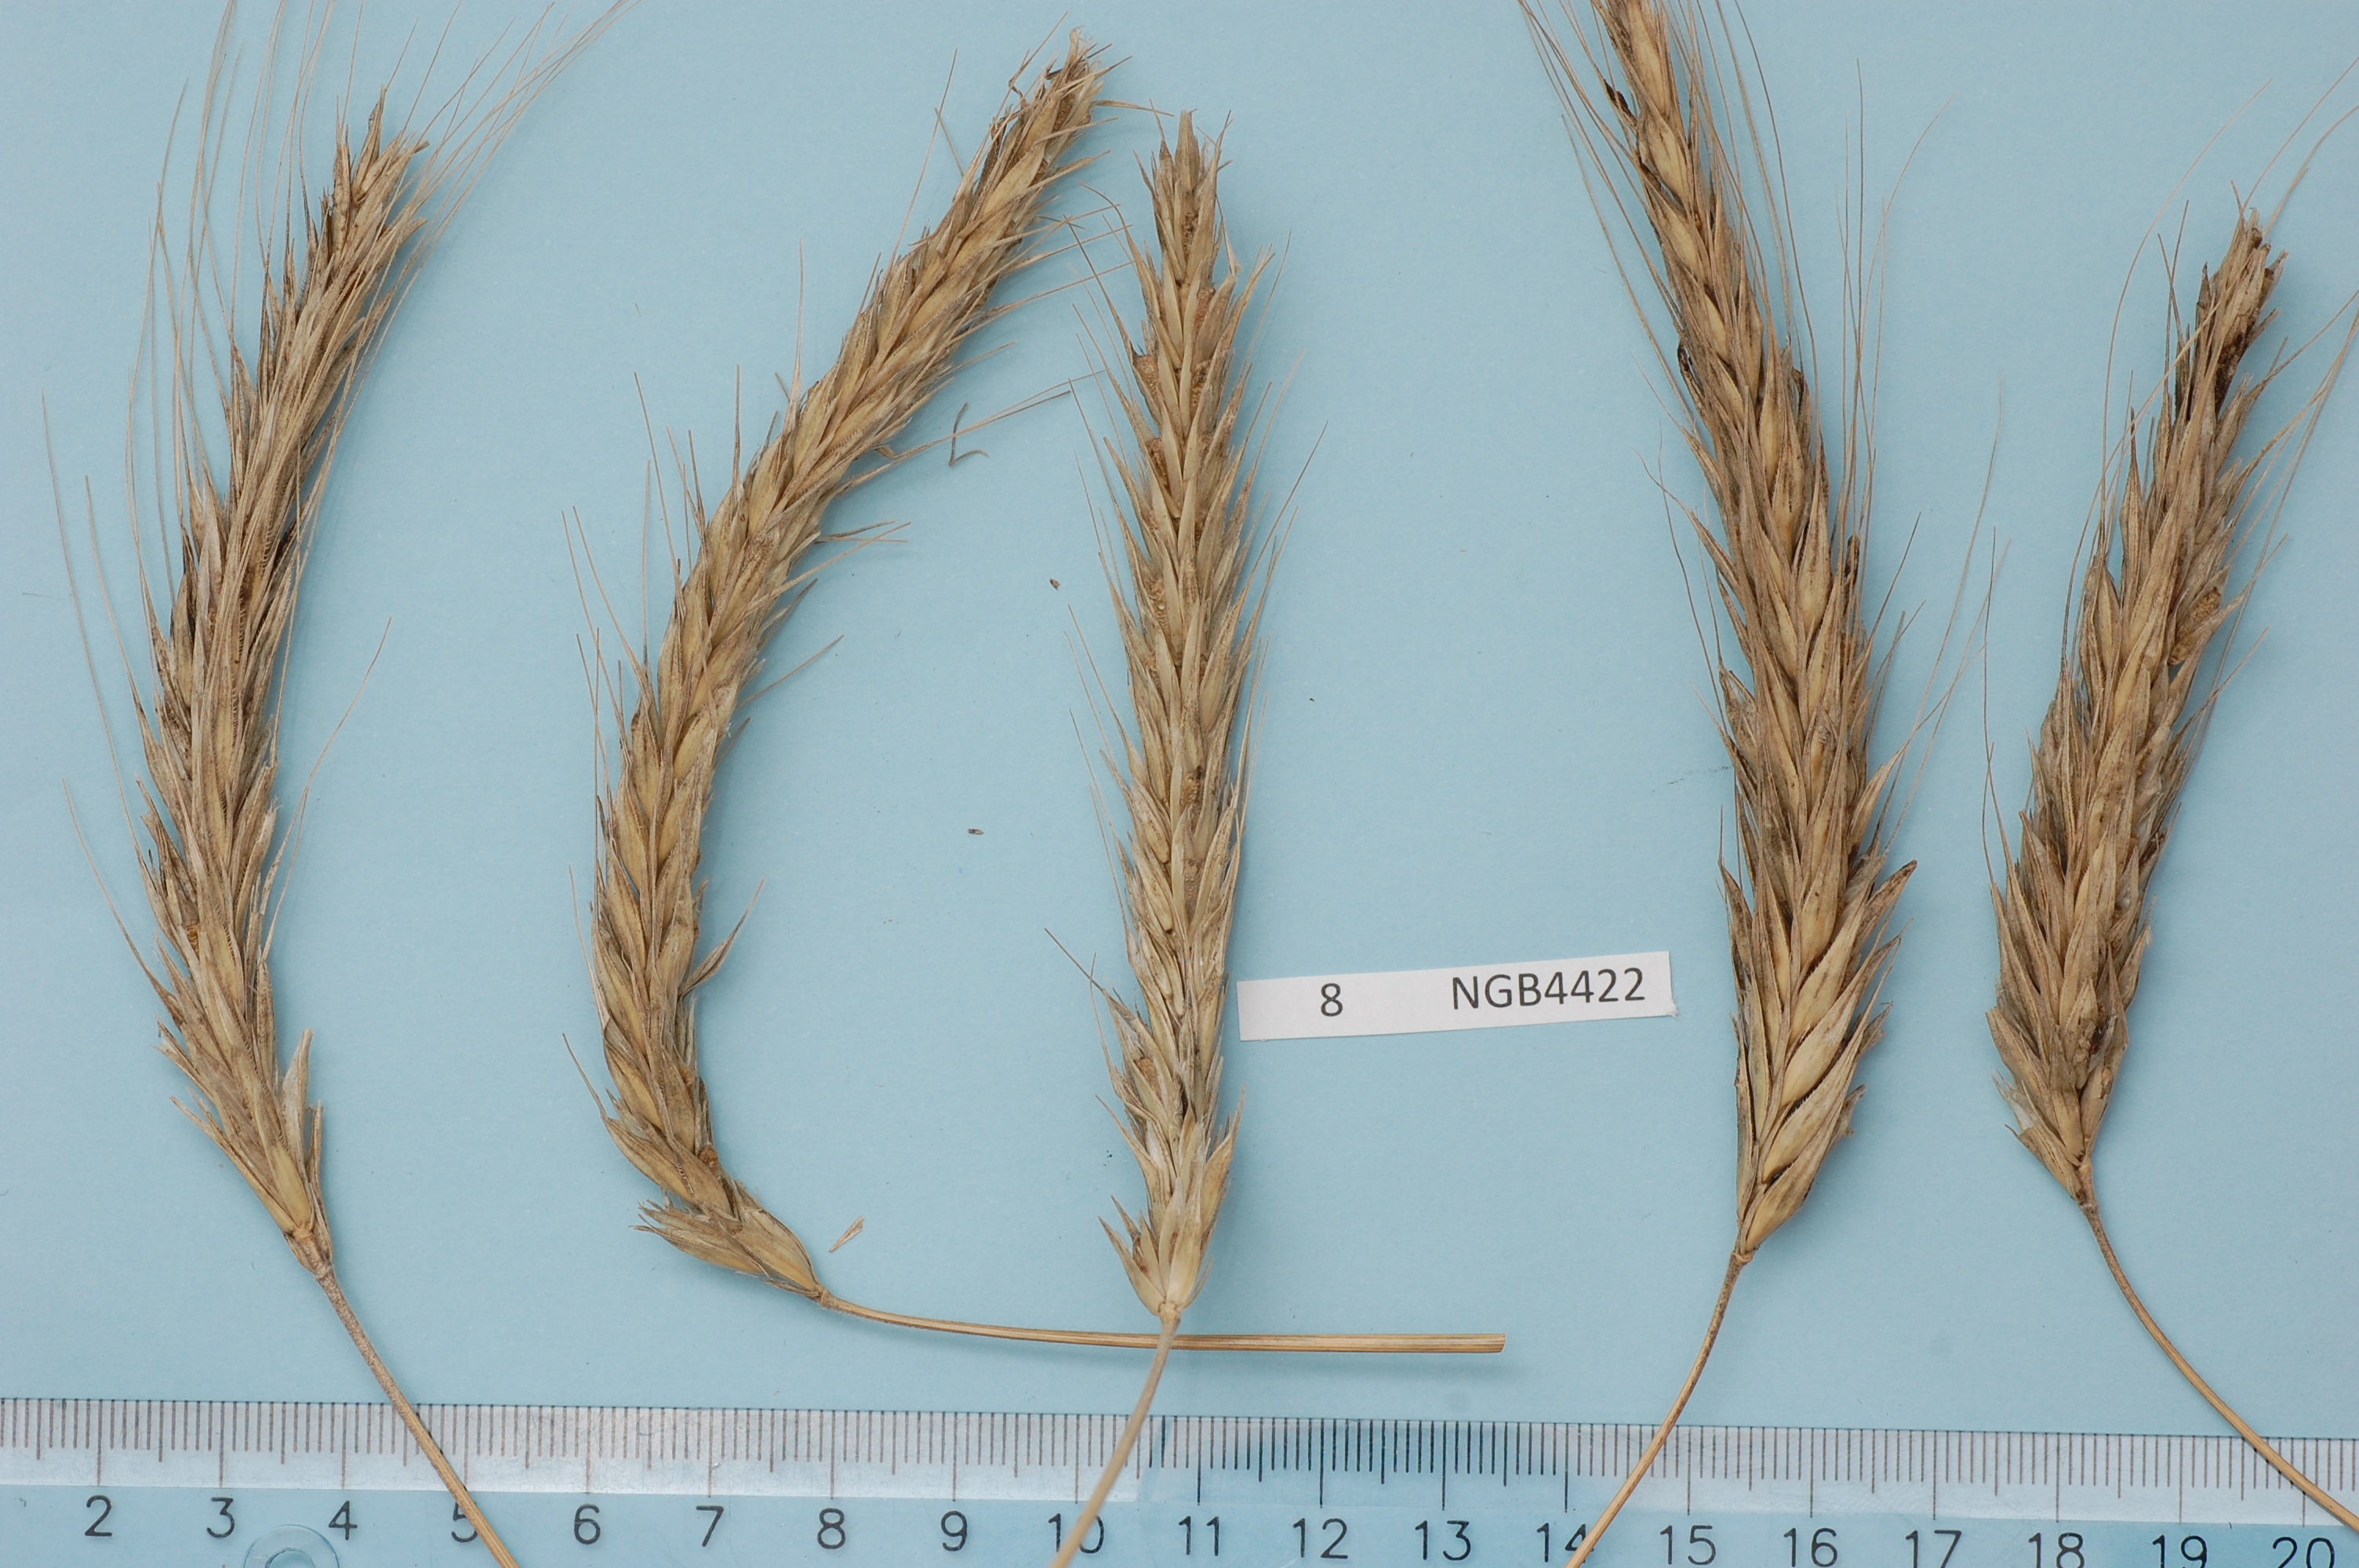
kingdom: Plantae
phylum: Tracheophyta
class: Liliopsida
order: Poales
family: Poaceae
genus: Secale
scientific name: Secale cereale
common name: Rye
